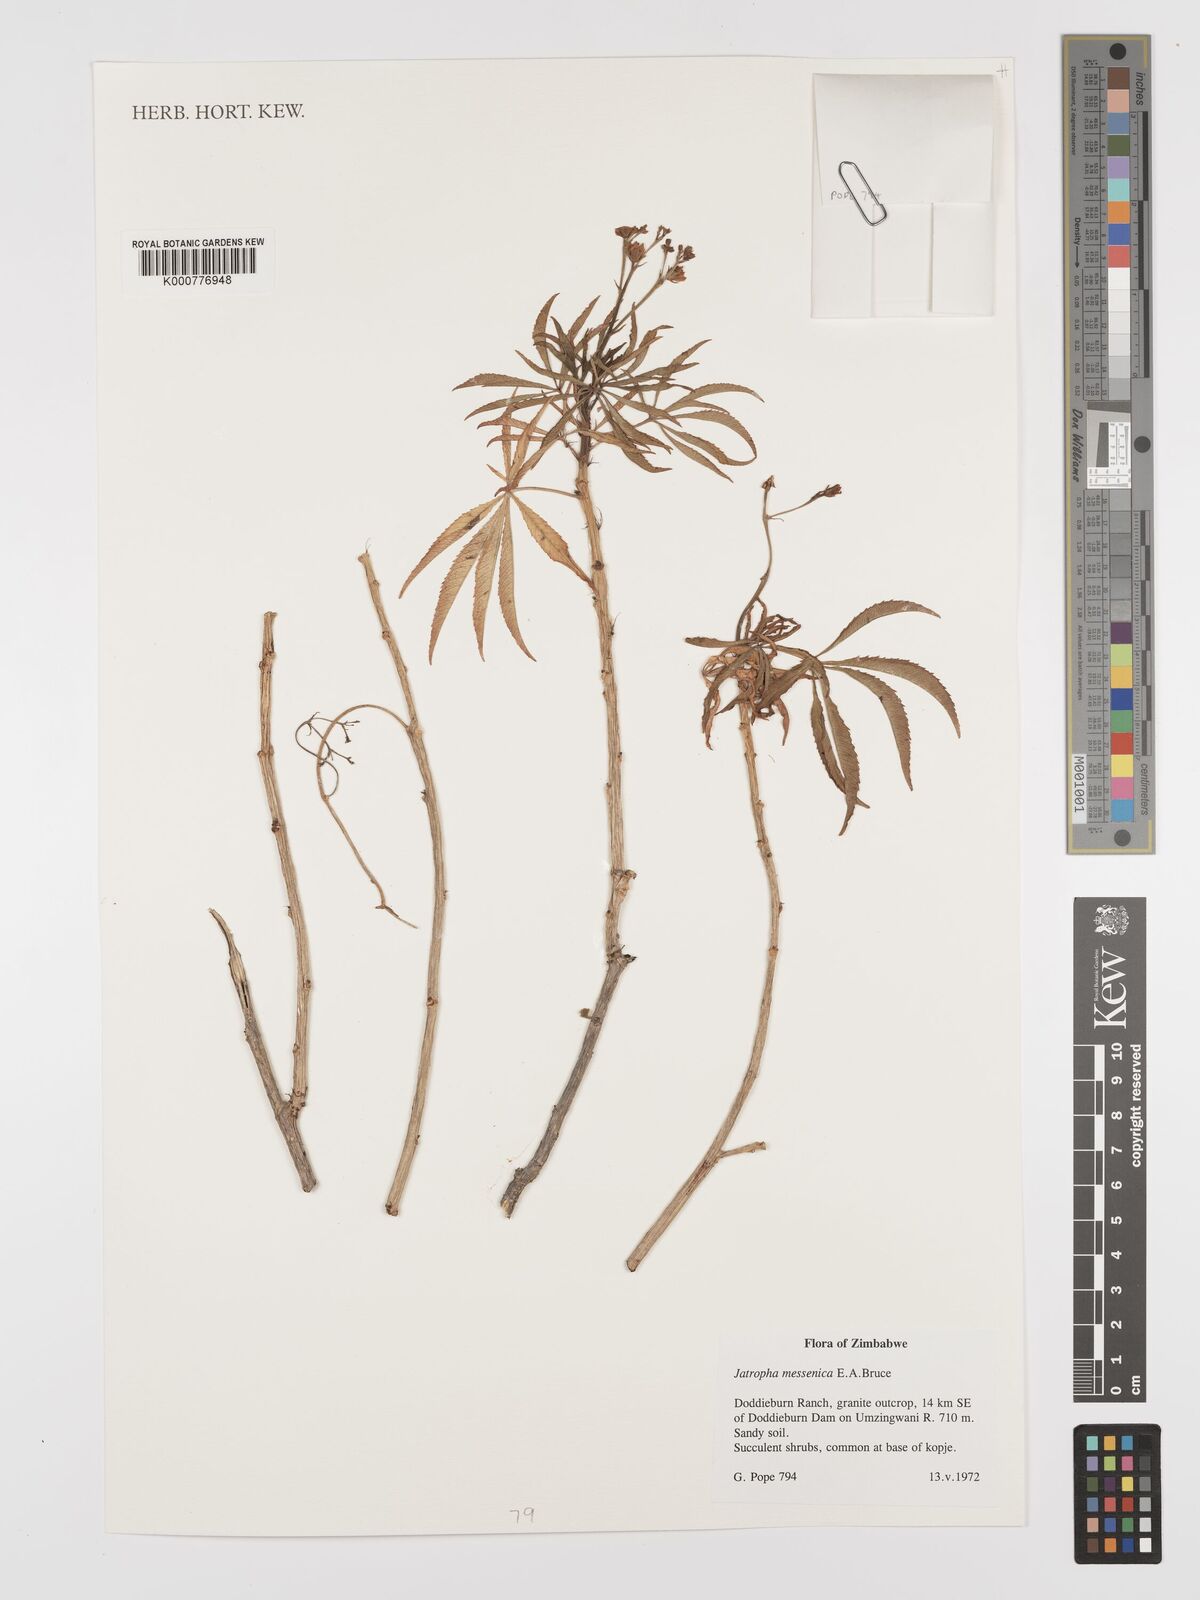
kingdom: Plantae
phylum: Tracheophyta
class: Magnoliopsida
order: Malpighiales
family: Euphorbiaceae
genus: Jatropha
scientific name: Jatropha spicata
